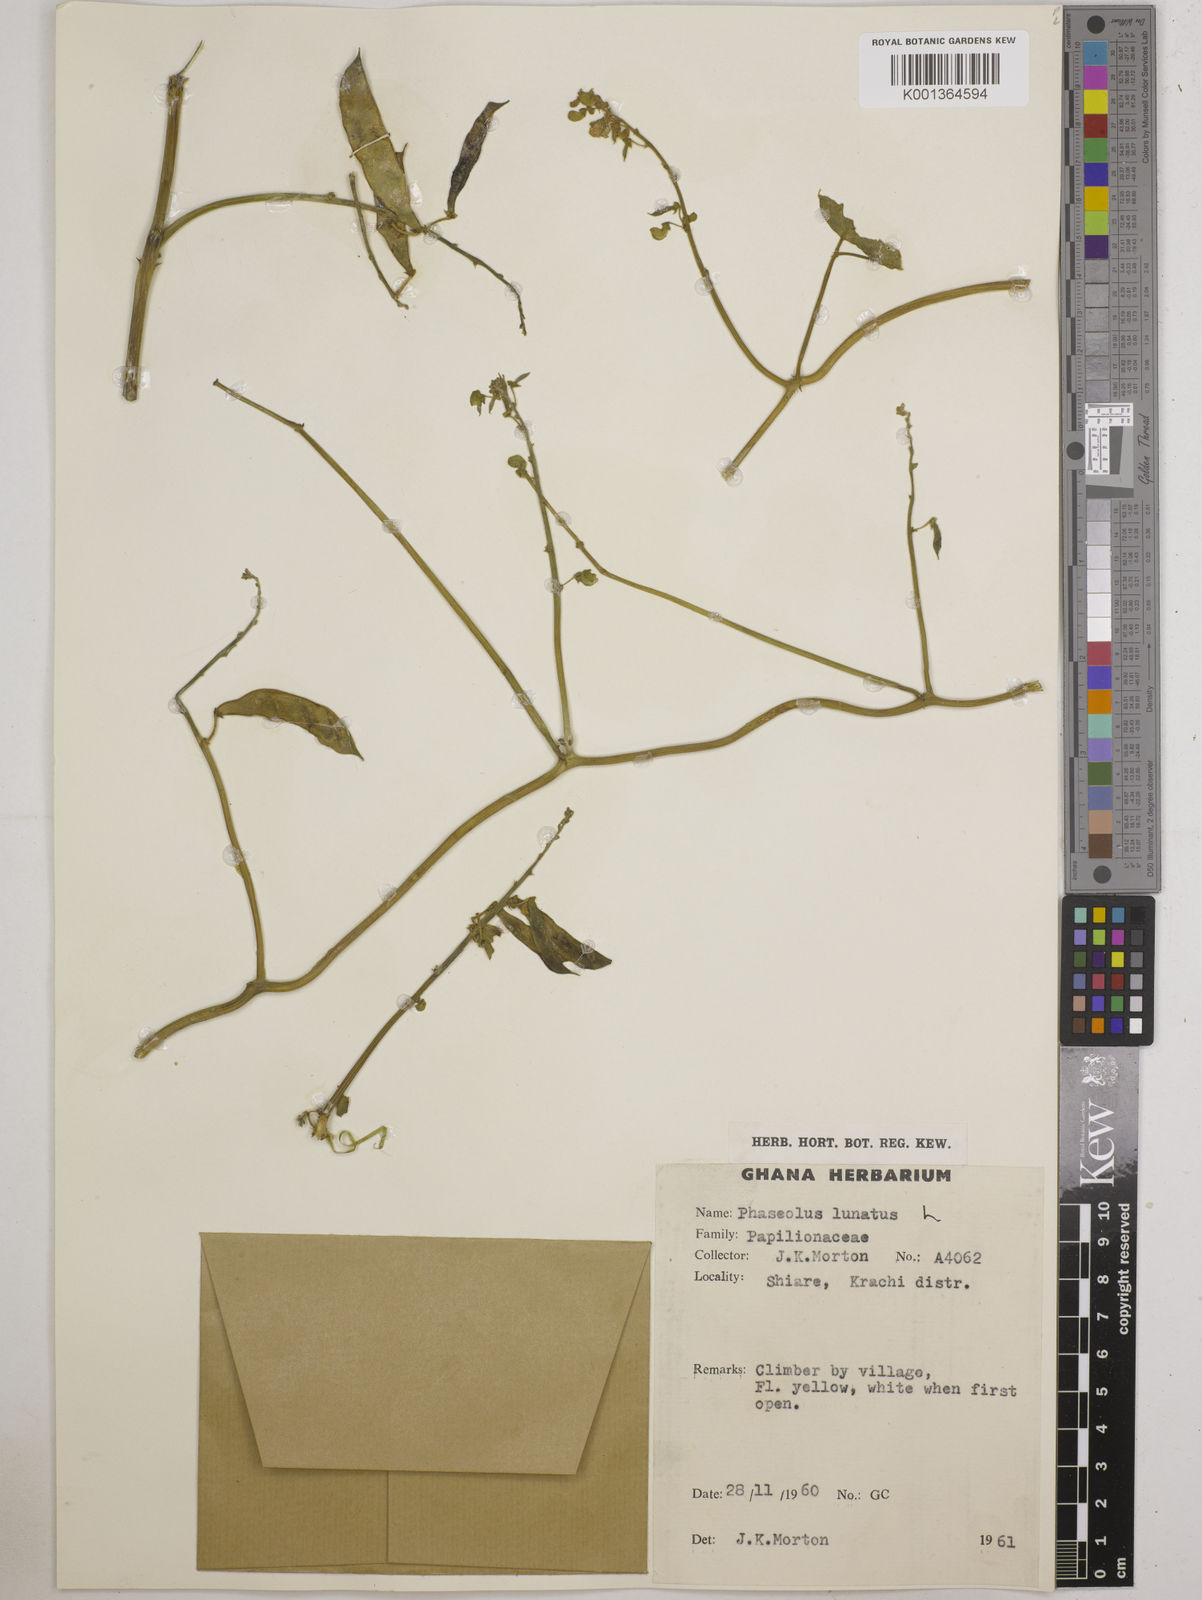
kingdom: Plantae
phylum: Tracheophyta
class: Magnoliopsida
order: Fabales
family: Fabaceae
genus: Phaseolus
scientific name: Phaseolus lunatus
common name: Sieva bean
